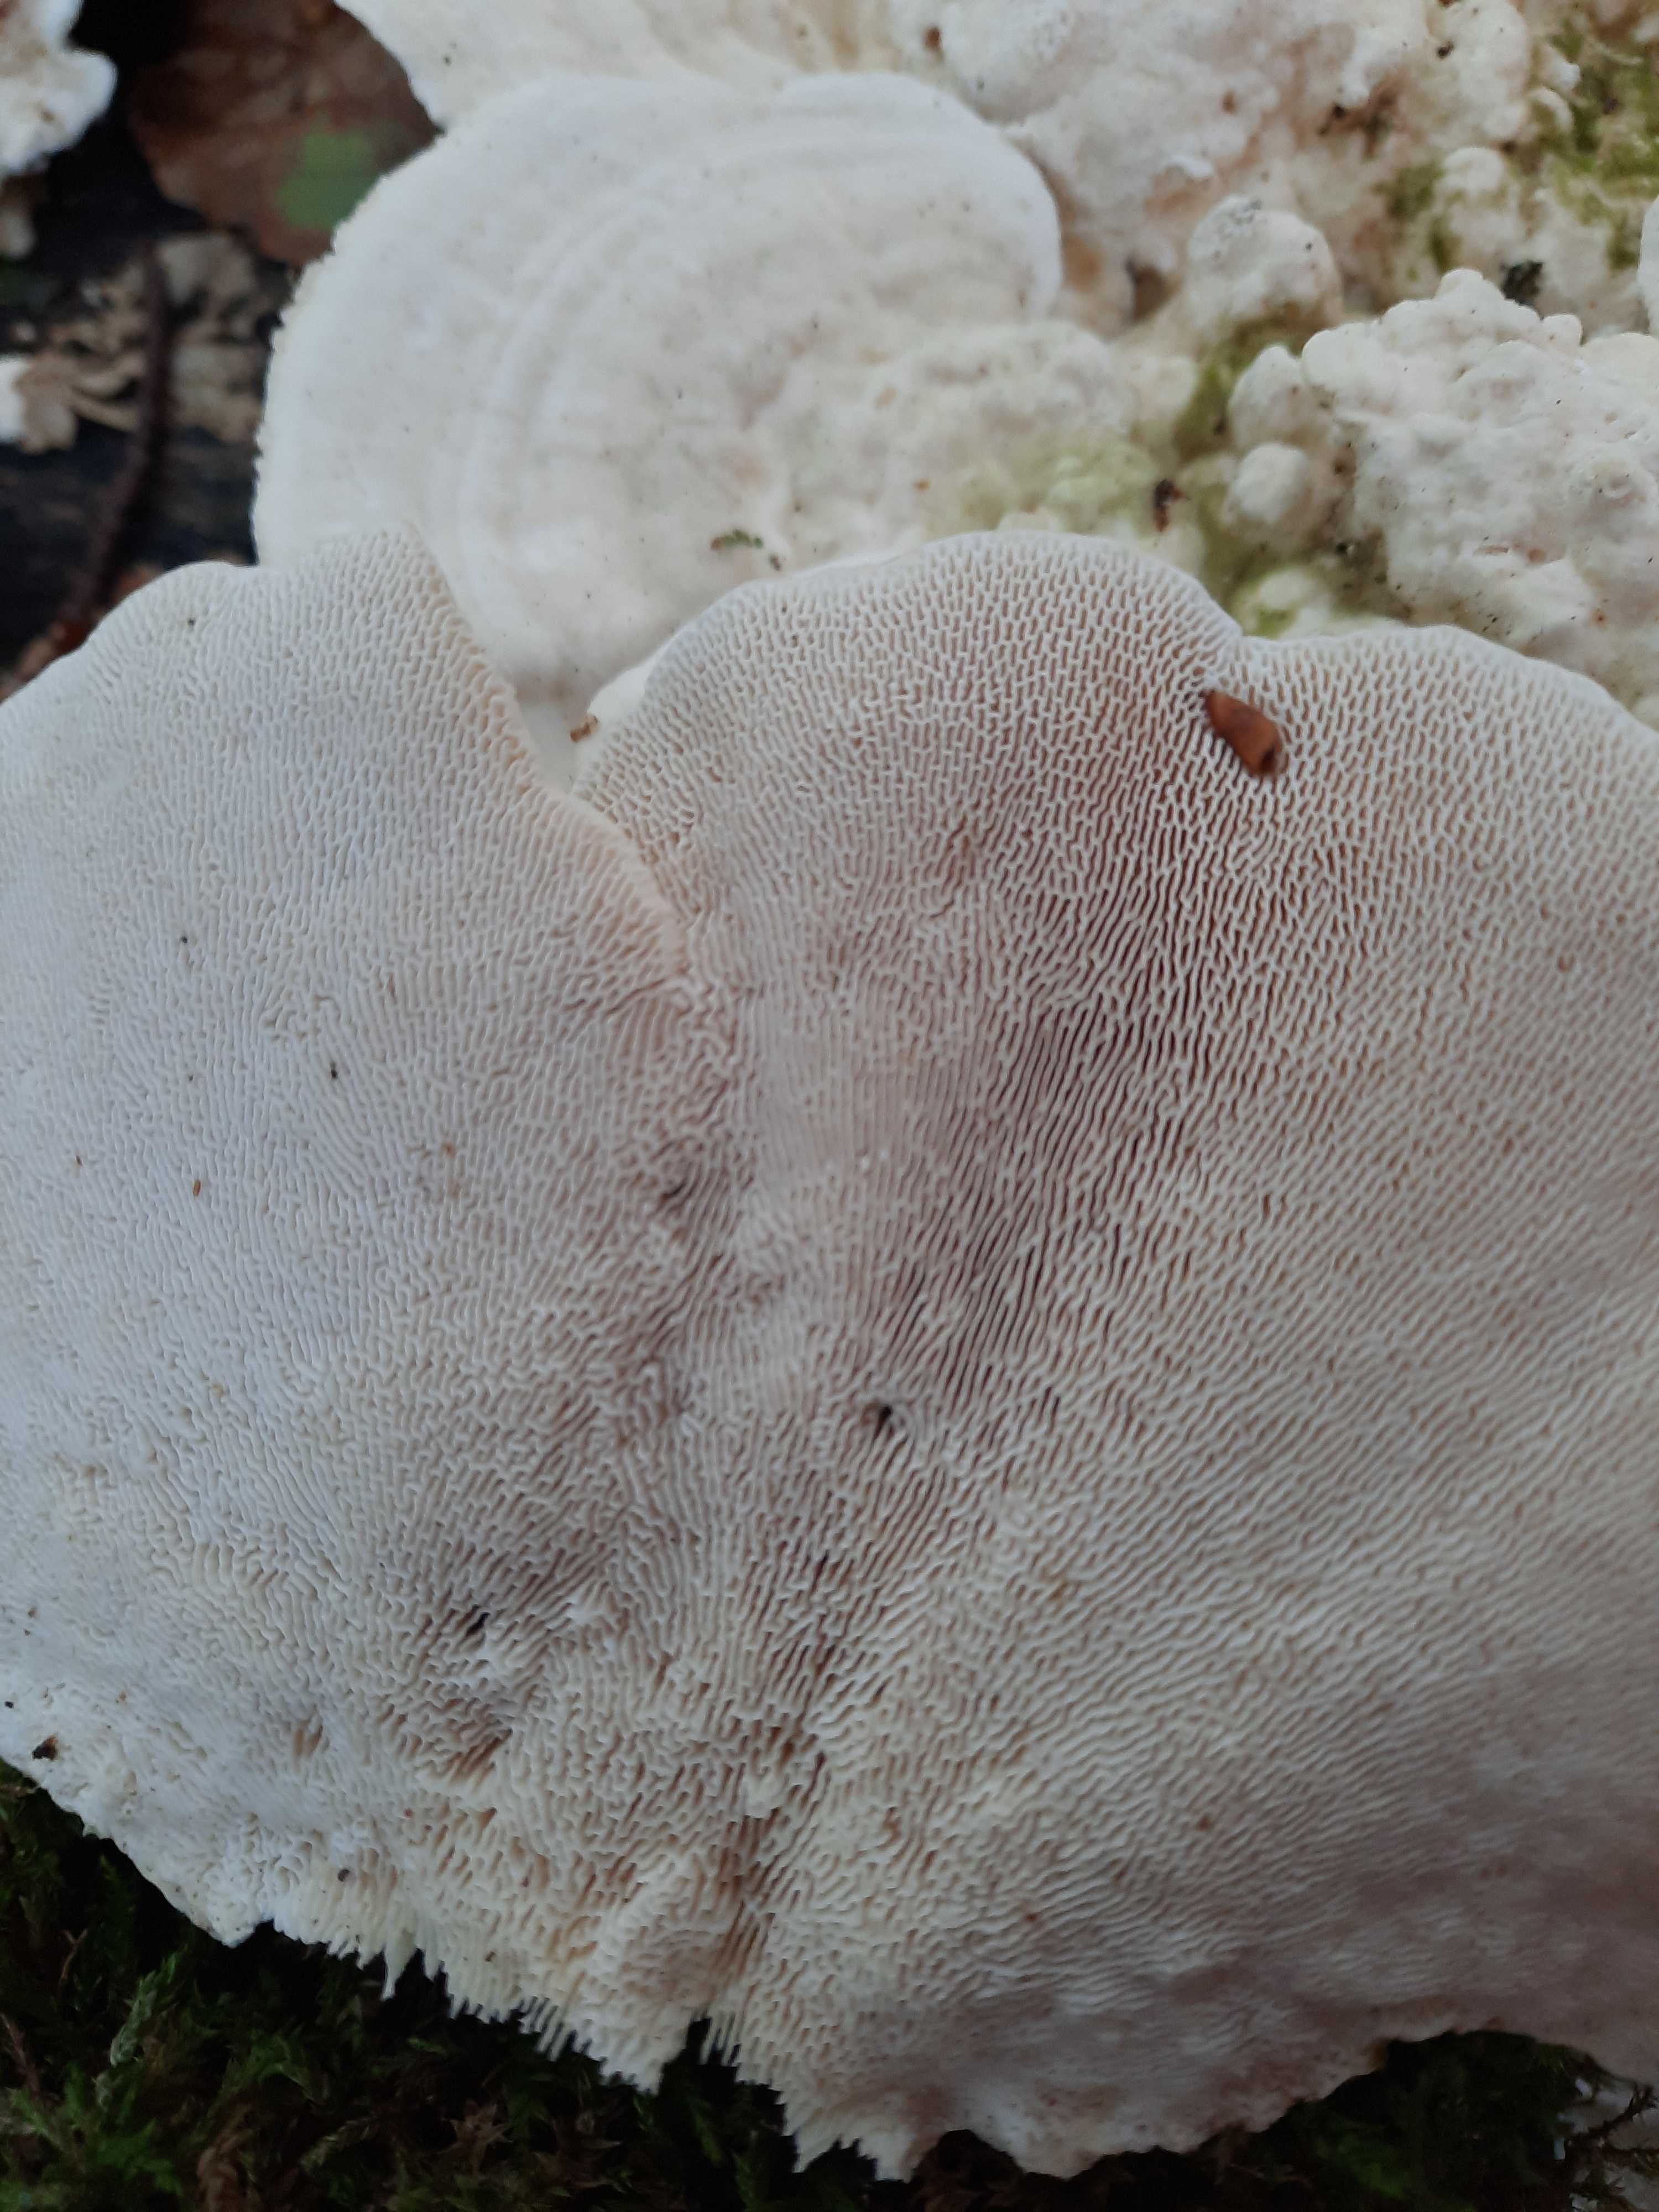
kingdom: Fungi
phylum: Basidiomycota
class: Agaricomycetes
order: Polyporales
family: Polyporaceae
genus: Trametes
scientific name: Trametes gibbosa
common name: puklet læderporesvamp
